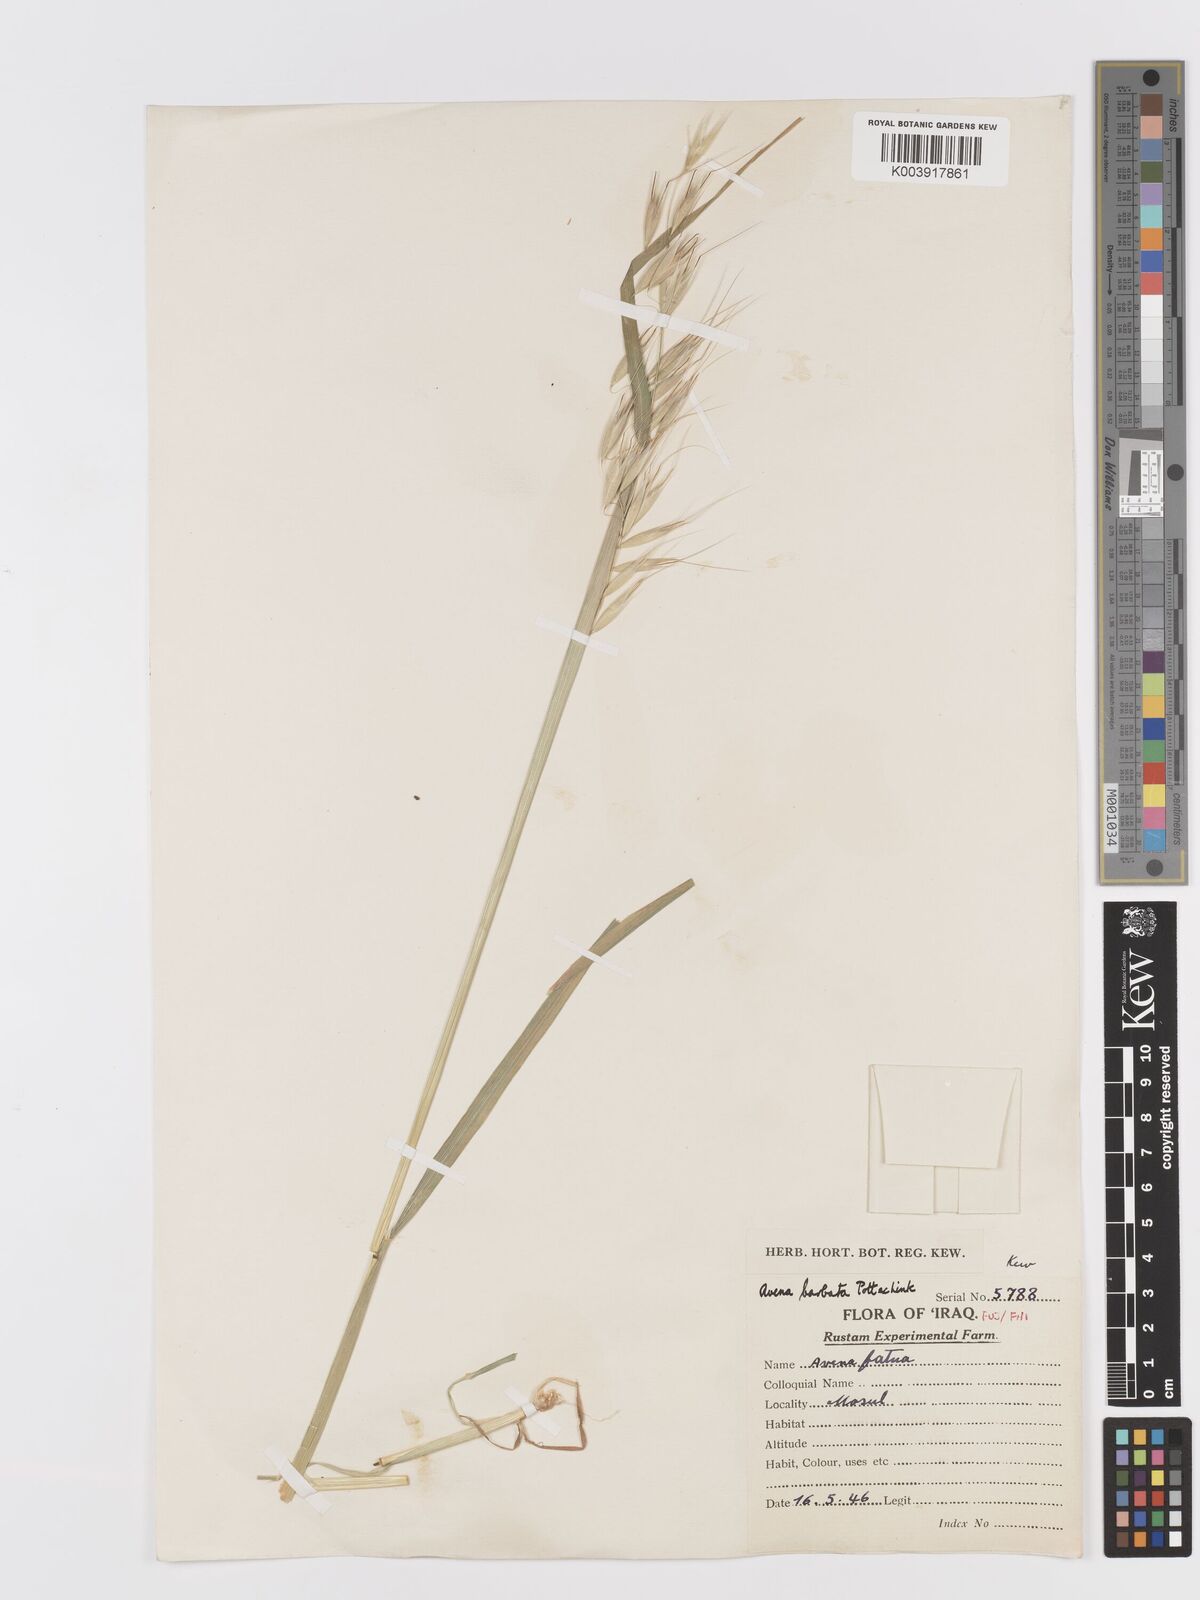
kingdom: Plantae
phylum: Tracheophyta
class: Liliopsida
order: Poales
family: Poaceae
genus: Avena
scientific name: Avena
